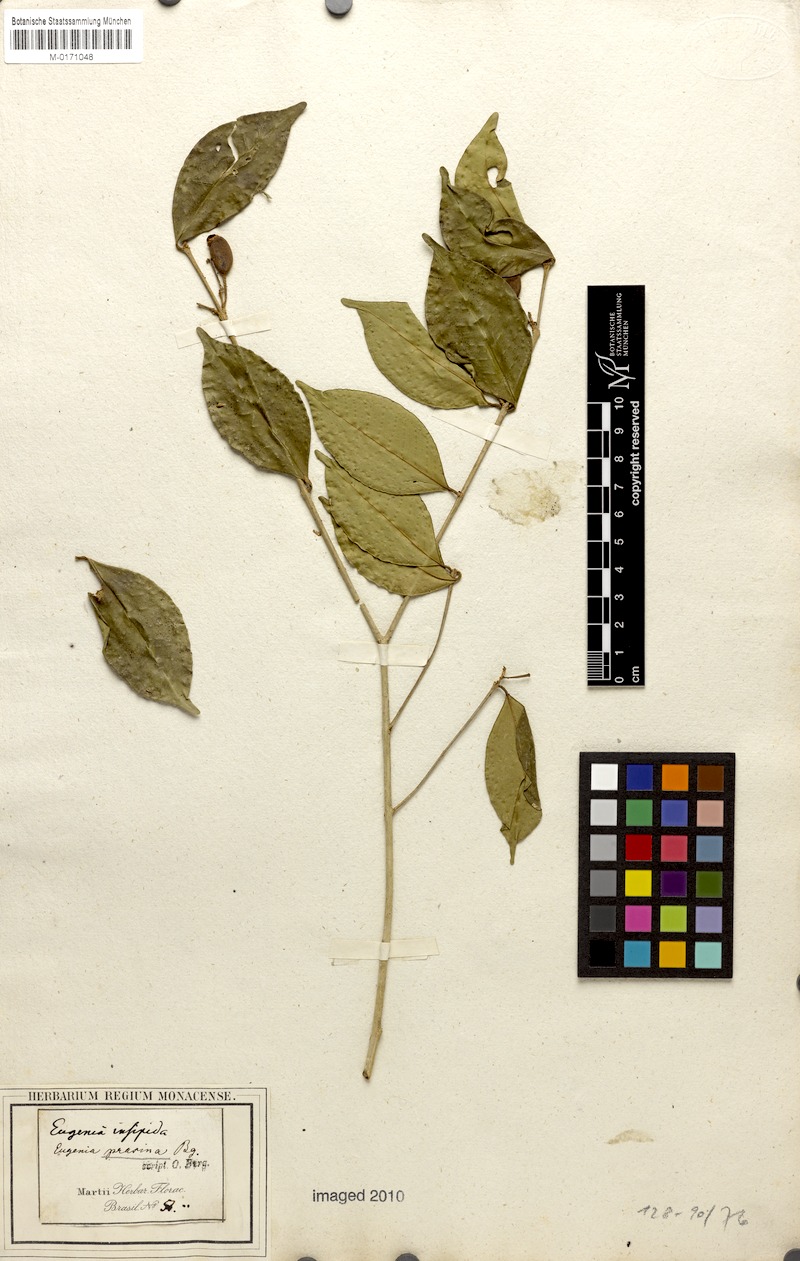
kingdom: Plantae
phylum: Tracheophyta
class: Magnoliopsida
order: Myrtales
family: Myrtaceae
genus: Eugenia
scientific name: Eugenia prasina
